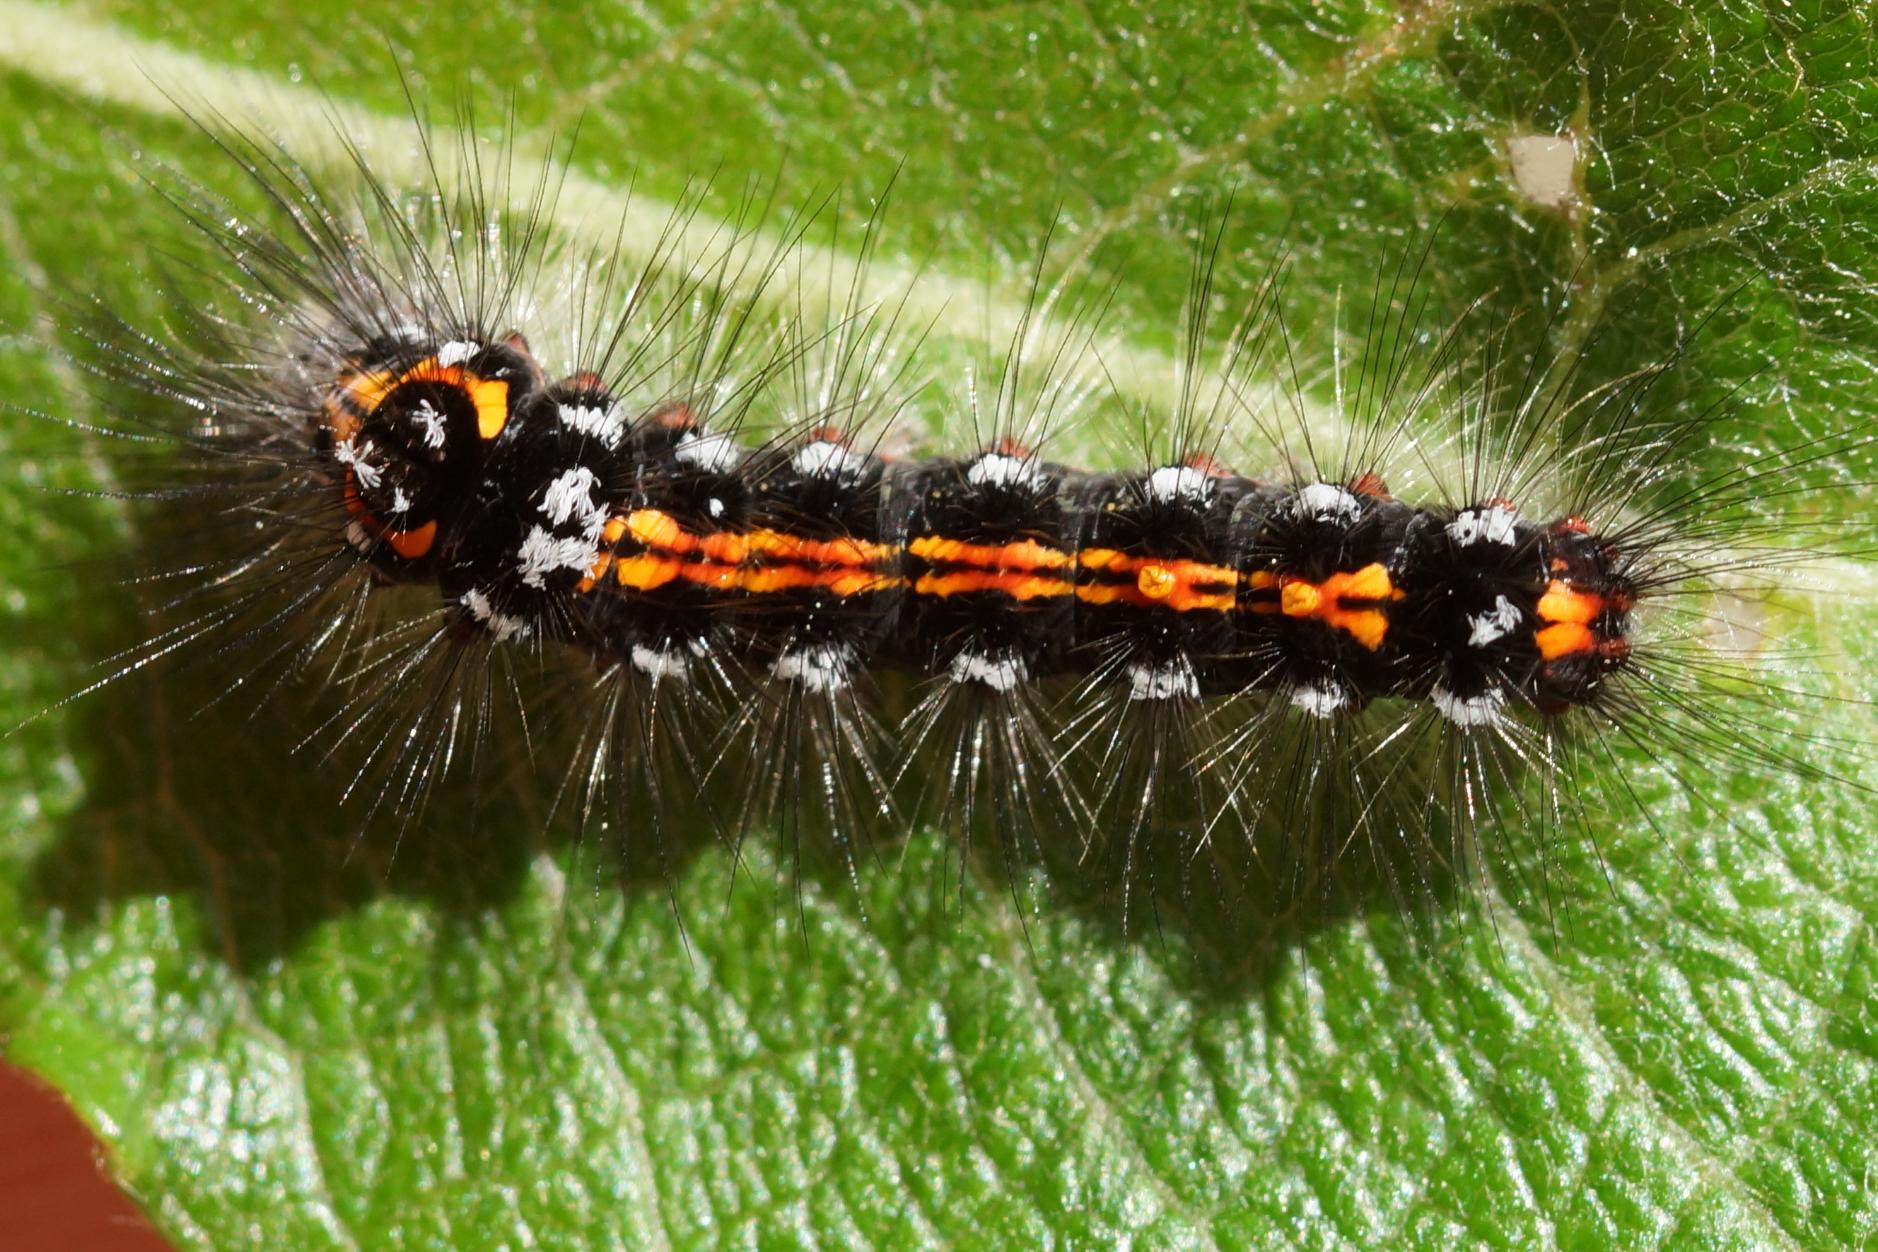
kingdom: Animalia
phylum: Arthropoda
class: Insecta
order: Lepidoptera
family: Erebidae
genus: Sphrageidus
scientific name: Sphrageidus similis
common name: Gulhale
